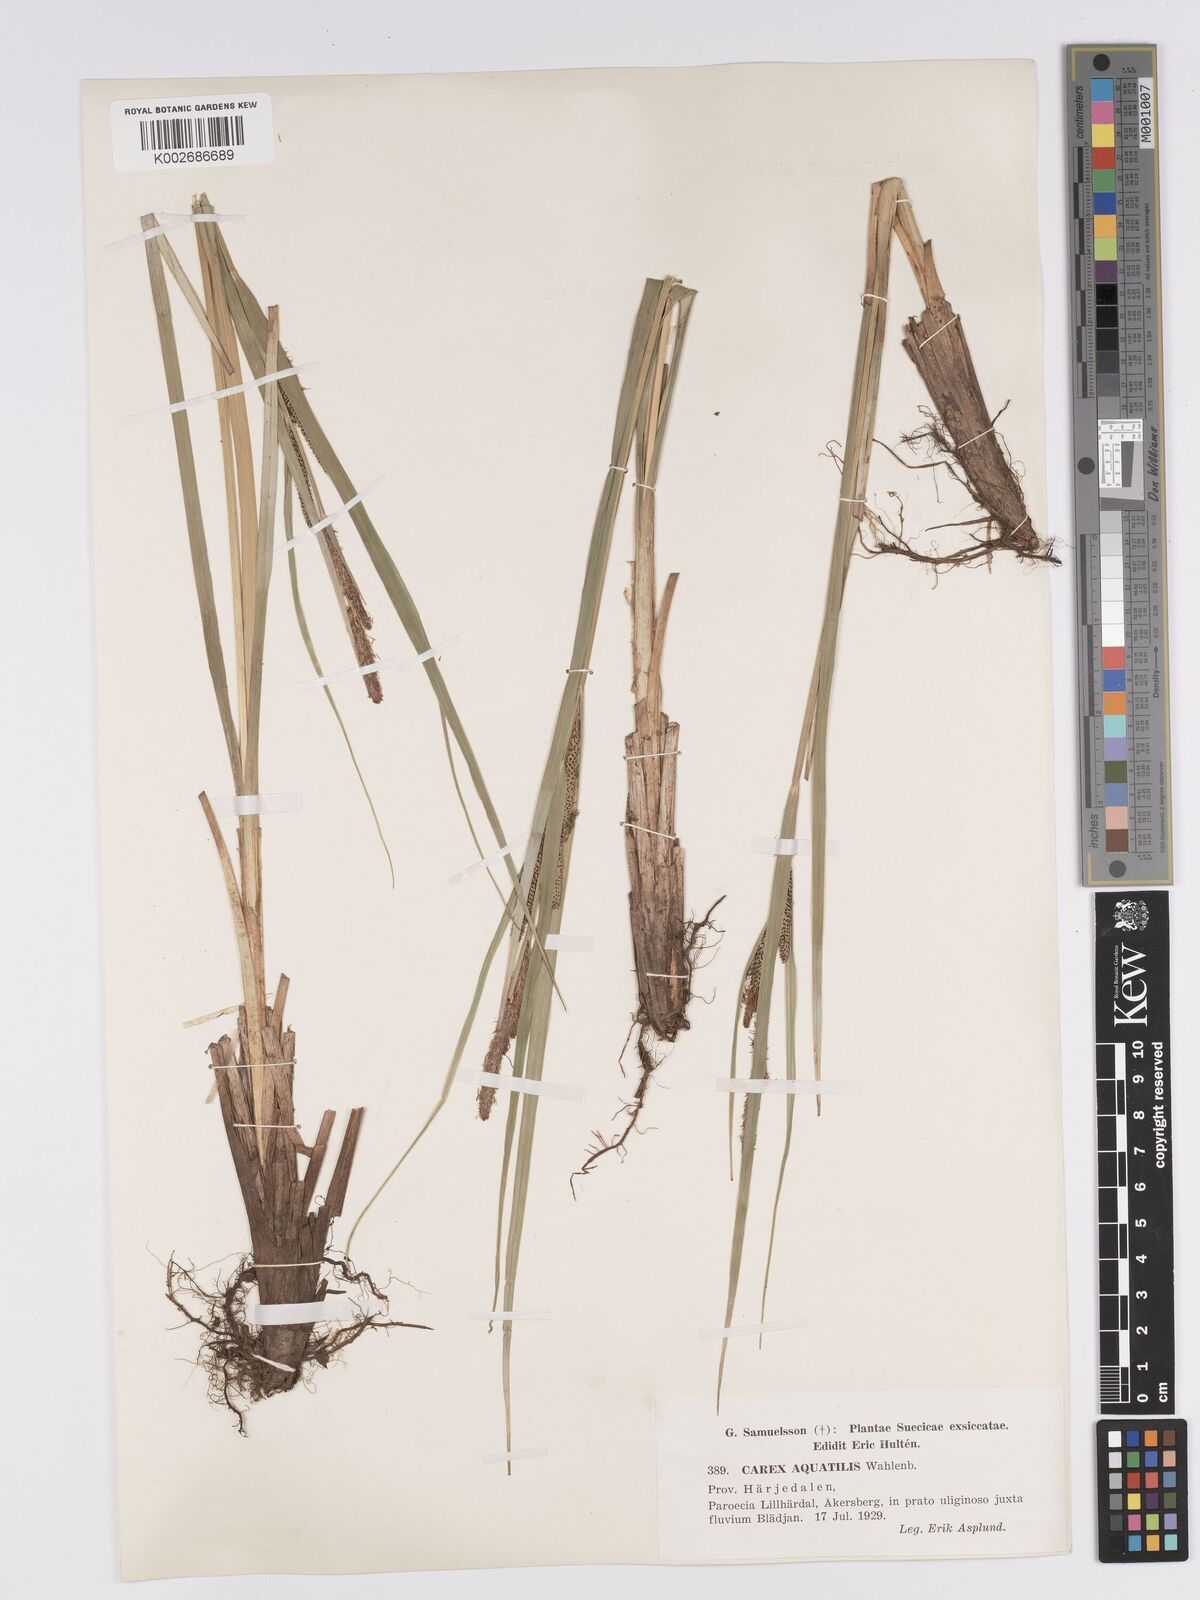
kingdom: Plantae
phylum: Tracheophyta
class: Liliopsida
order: Poales
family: Cyperaceae
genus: Carex
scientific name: Carex aquatilis
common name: Water sedge
